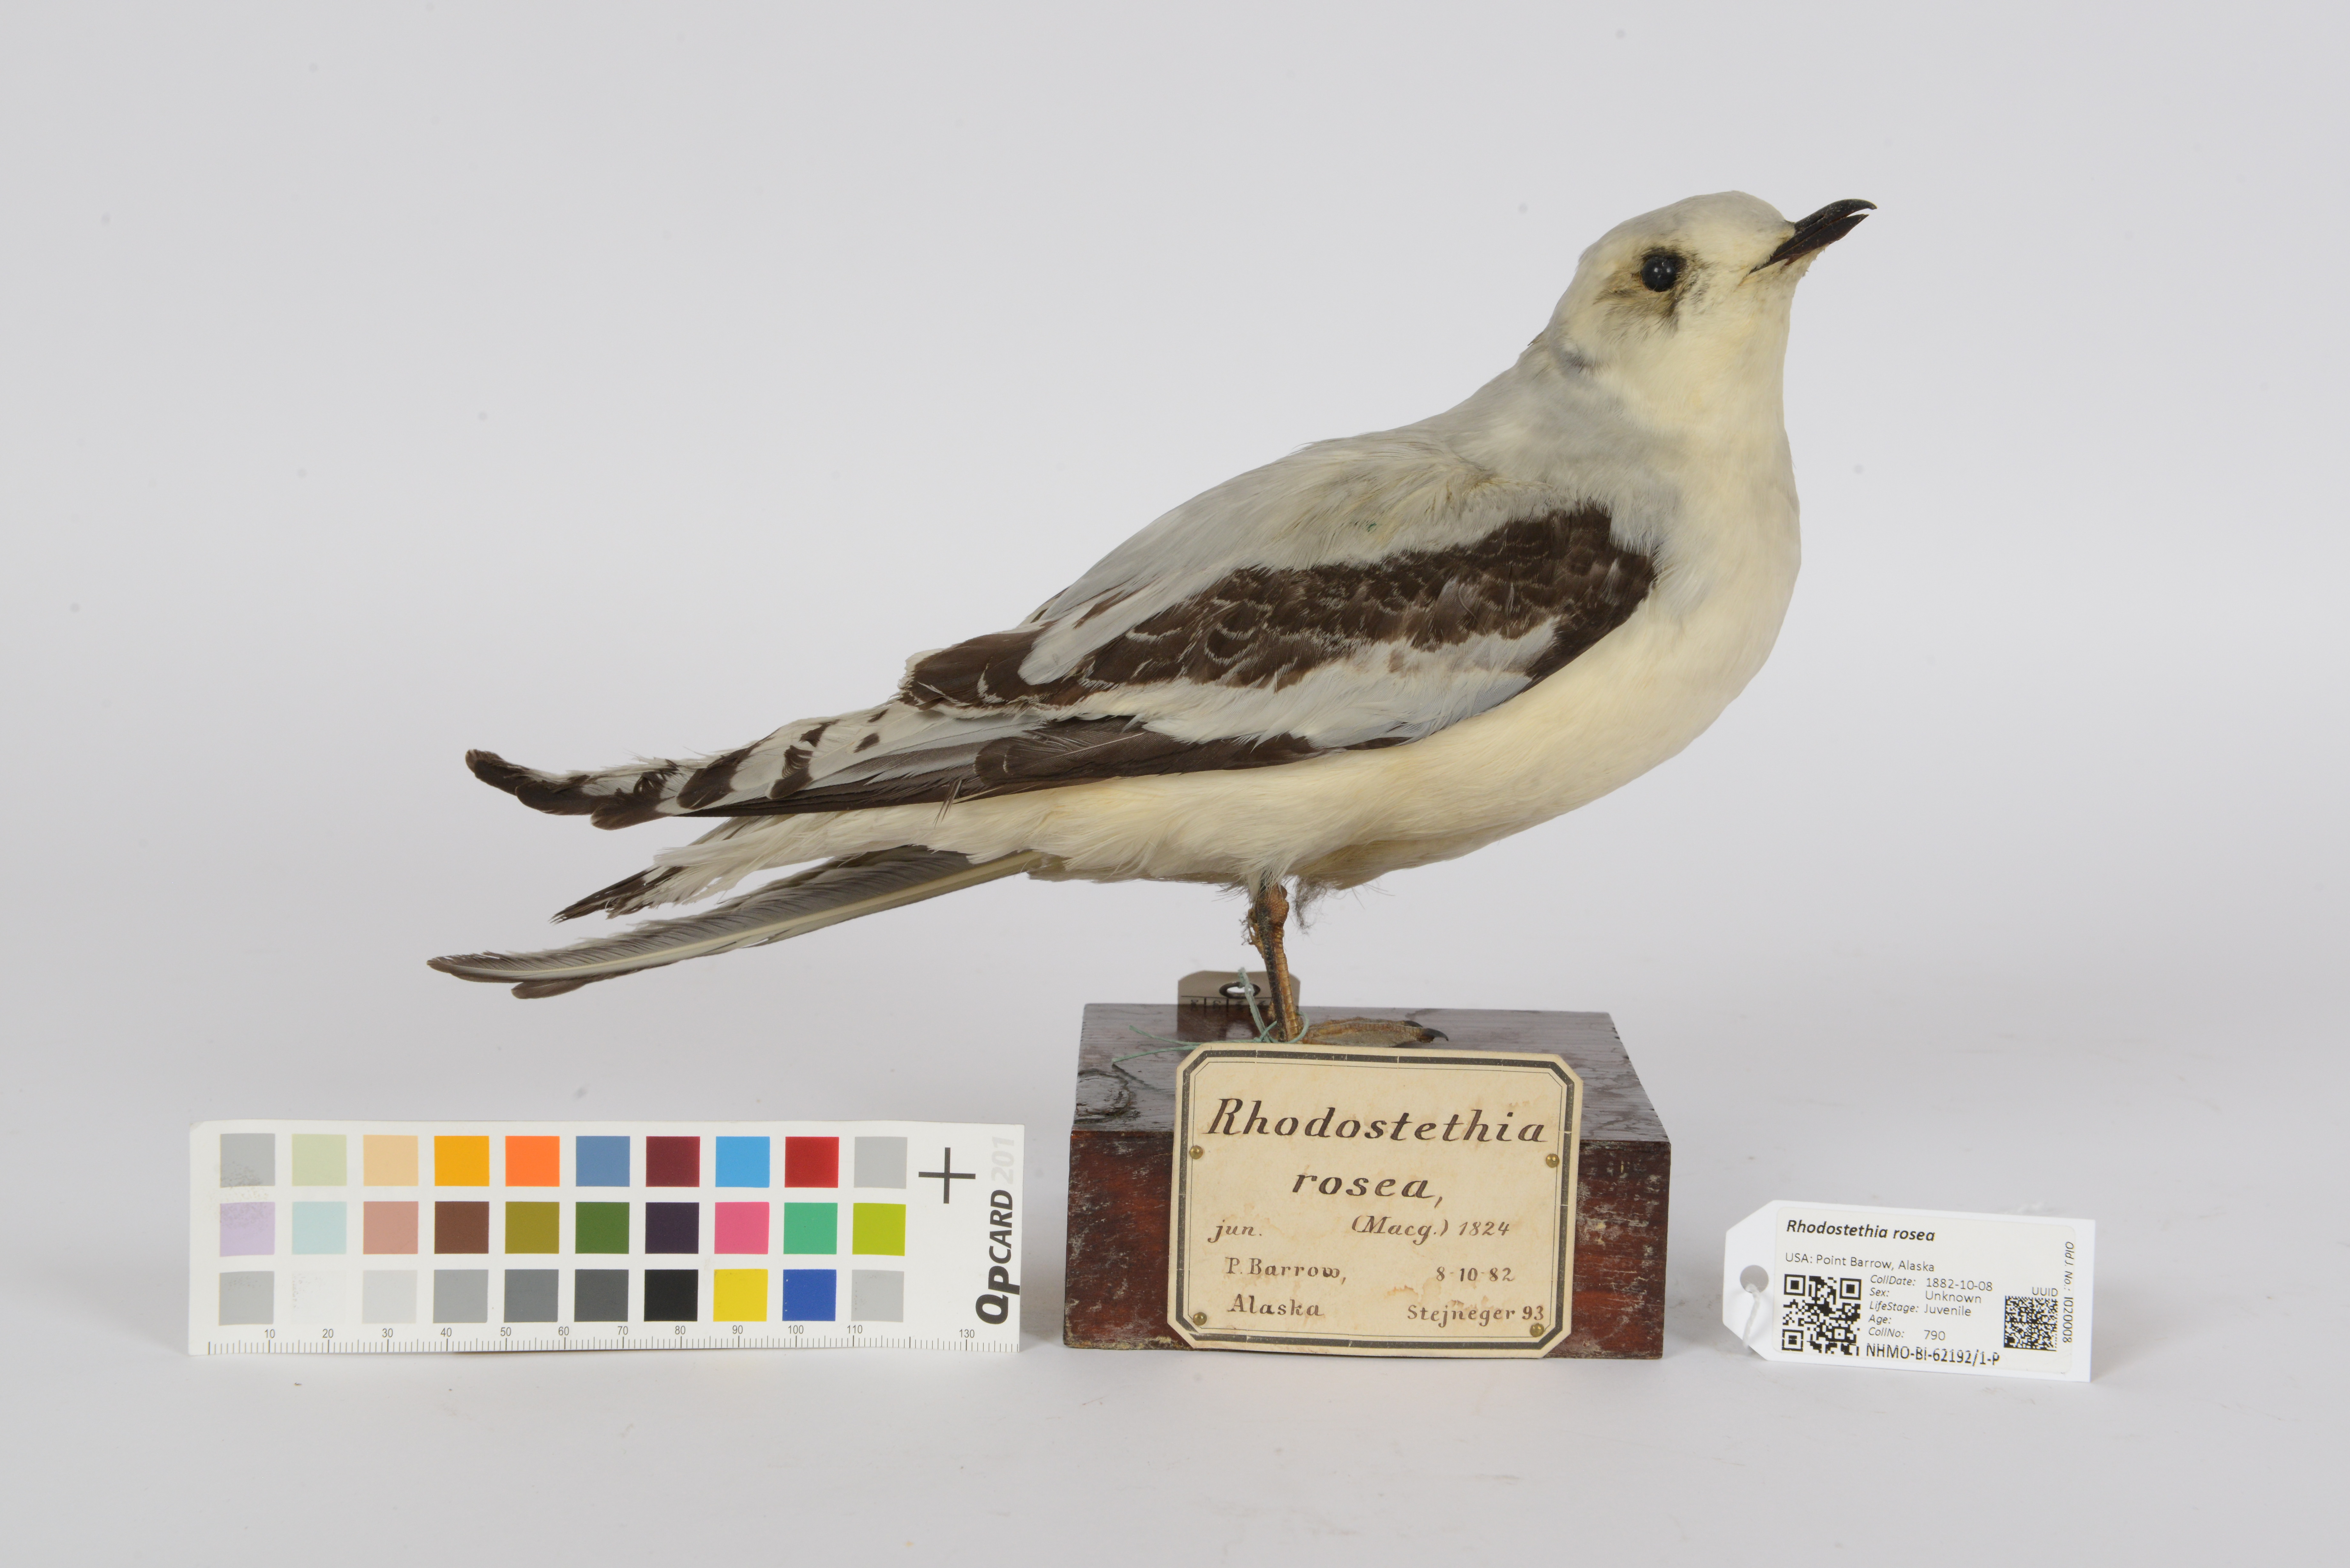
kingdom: Animalia
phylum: Chordata
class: Aves
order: Charadriiformes
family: Laridae
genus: Rhodostethia
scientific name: Rhodostethia rosea
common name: Ross's gull
